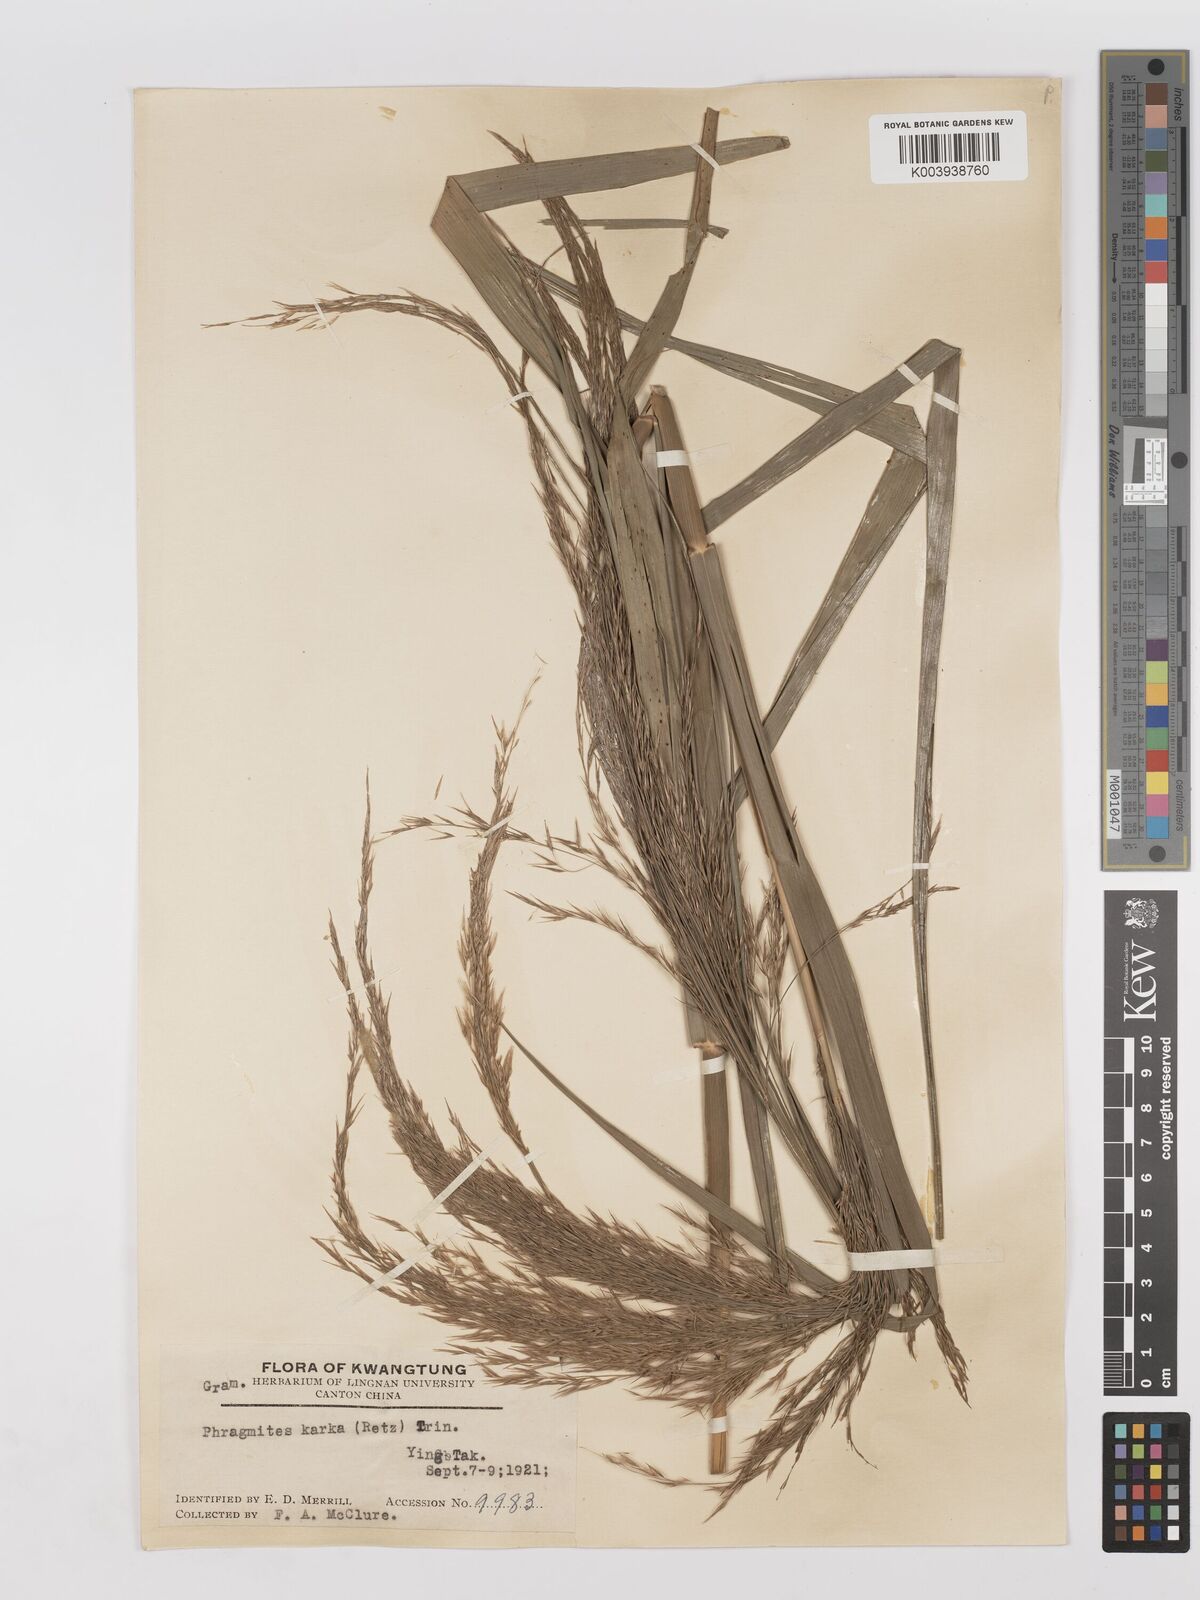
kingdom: Plantae
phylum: Tracheophyta
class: Liliopsida
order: Poales
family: Poaceae
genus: Phragmites
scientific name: Phragmites karka
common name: Tropical reed
